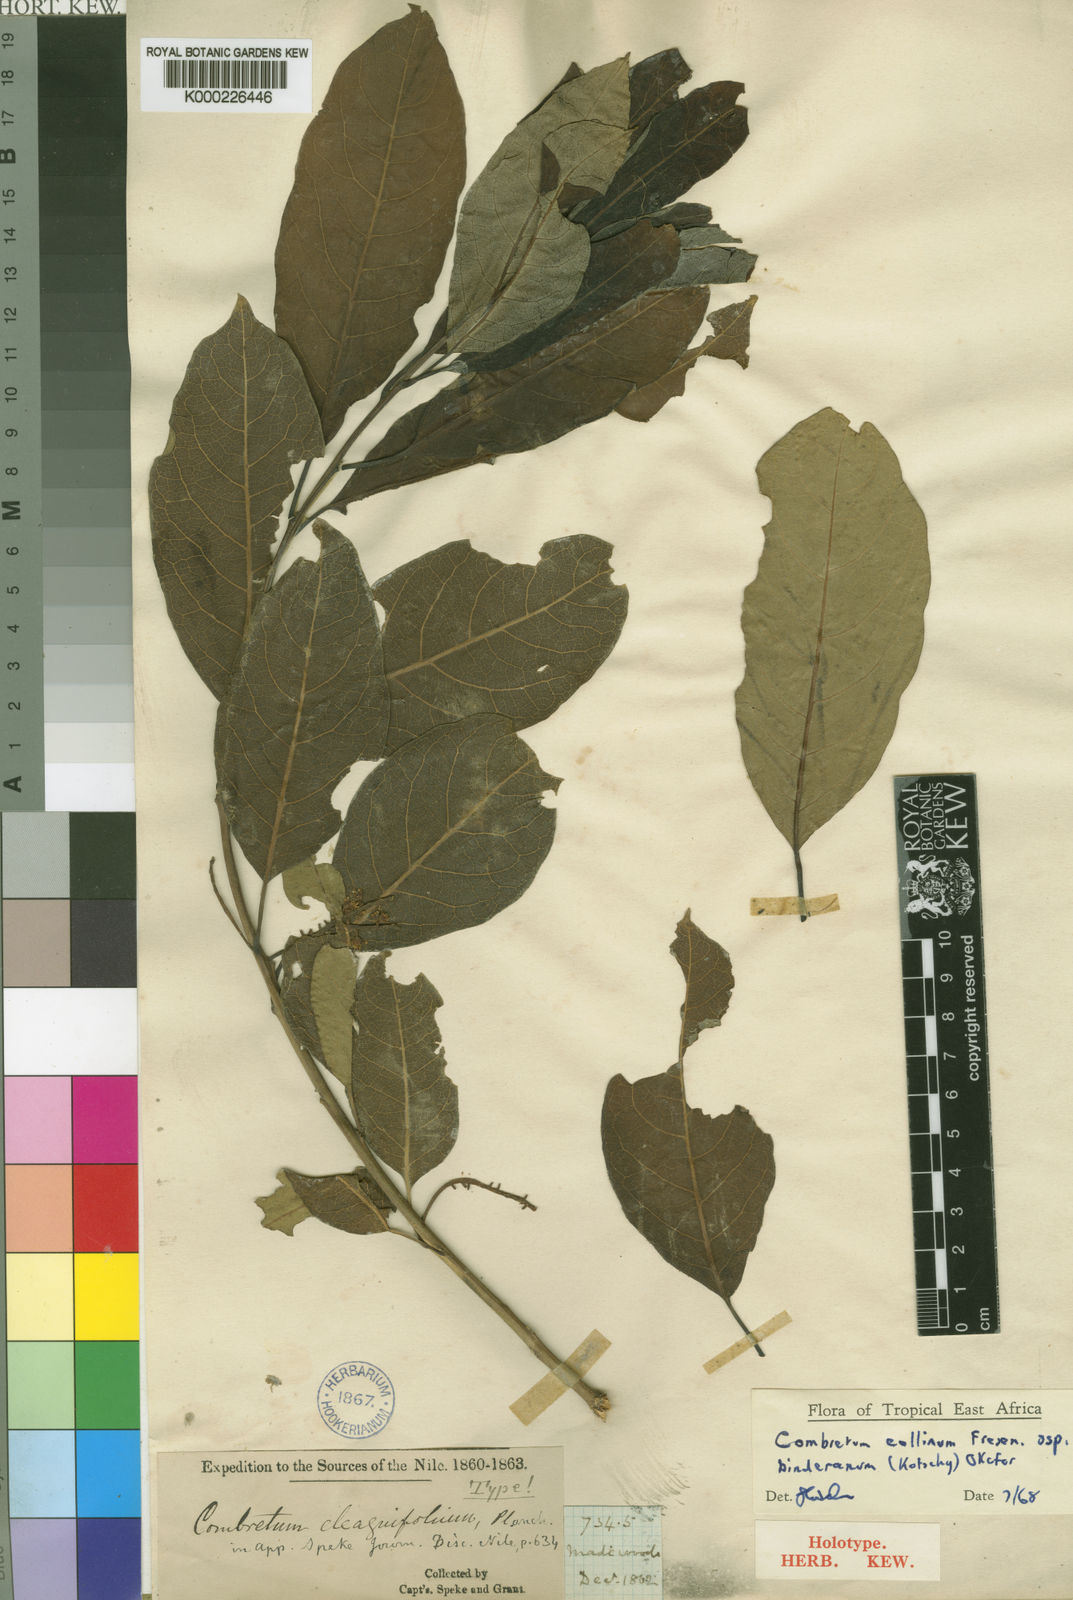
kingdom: Plantae
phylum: Tracheophyta
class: Magnoliopsida
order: Myrtales
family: Combretaceae
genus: Combretum
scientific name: Combretum collinum
